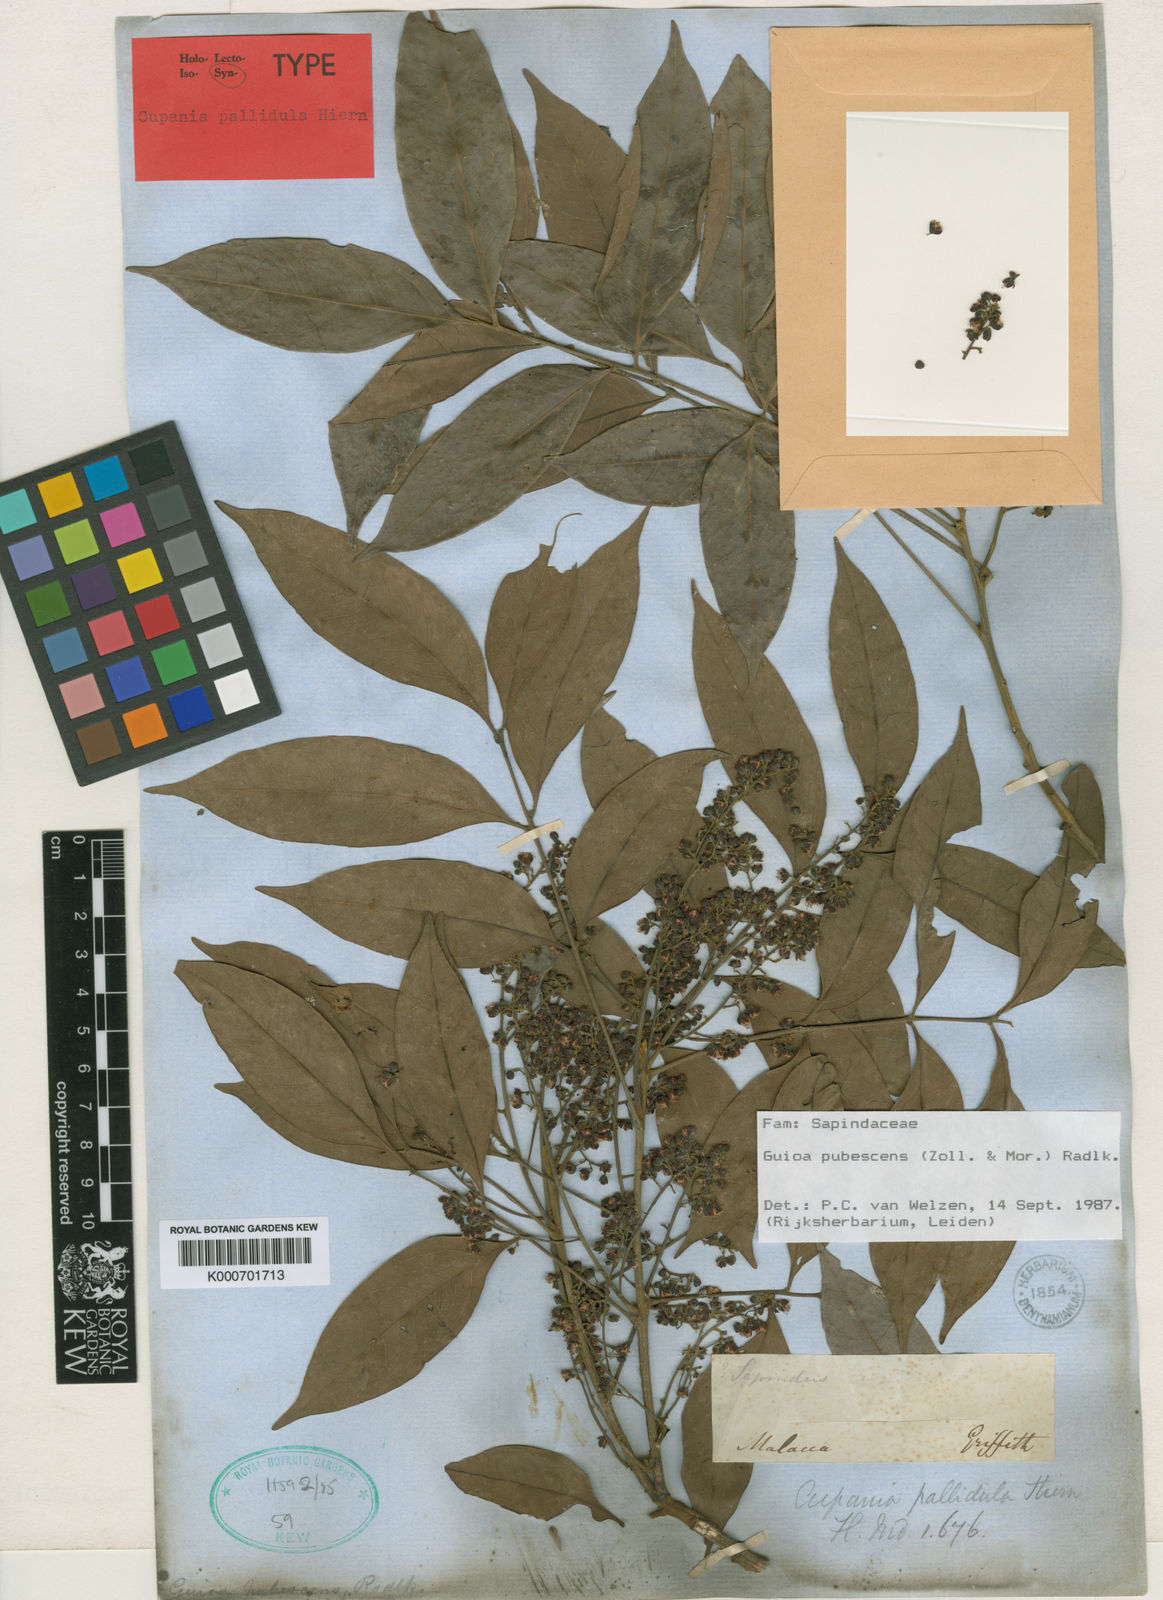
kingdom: Plantae
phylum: Tracheophyta
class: Magnoliopsida
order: Sapindales
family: Sapindaceae
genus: Guioa
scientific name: Guioa pubescens
